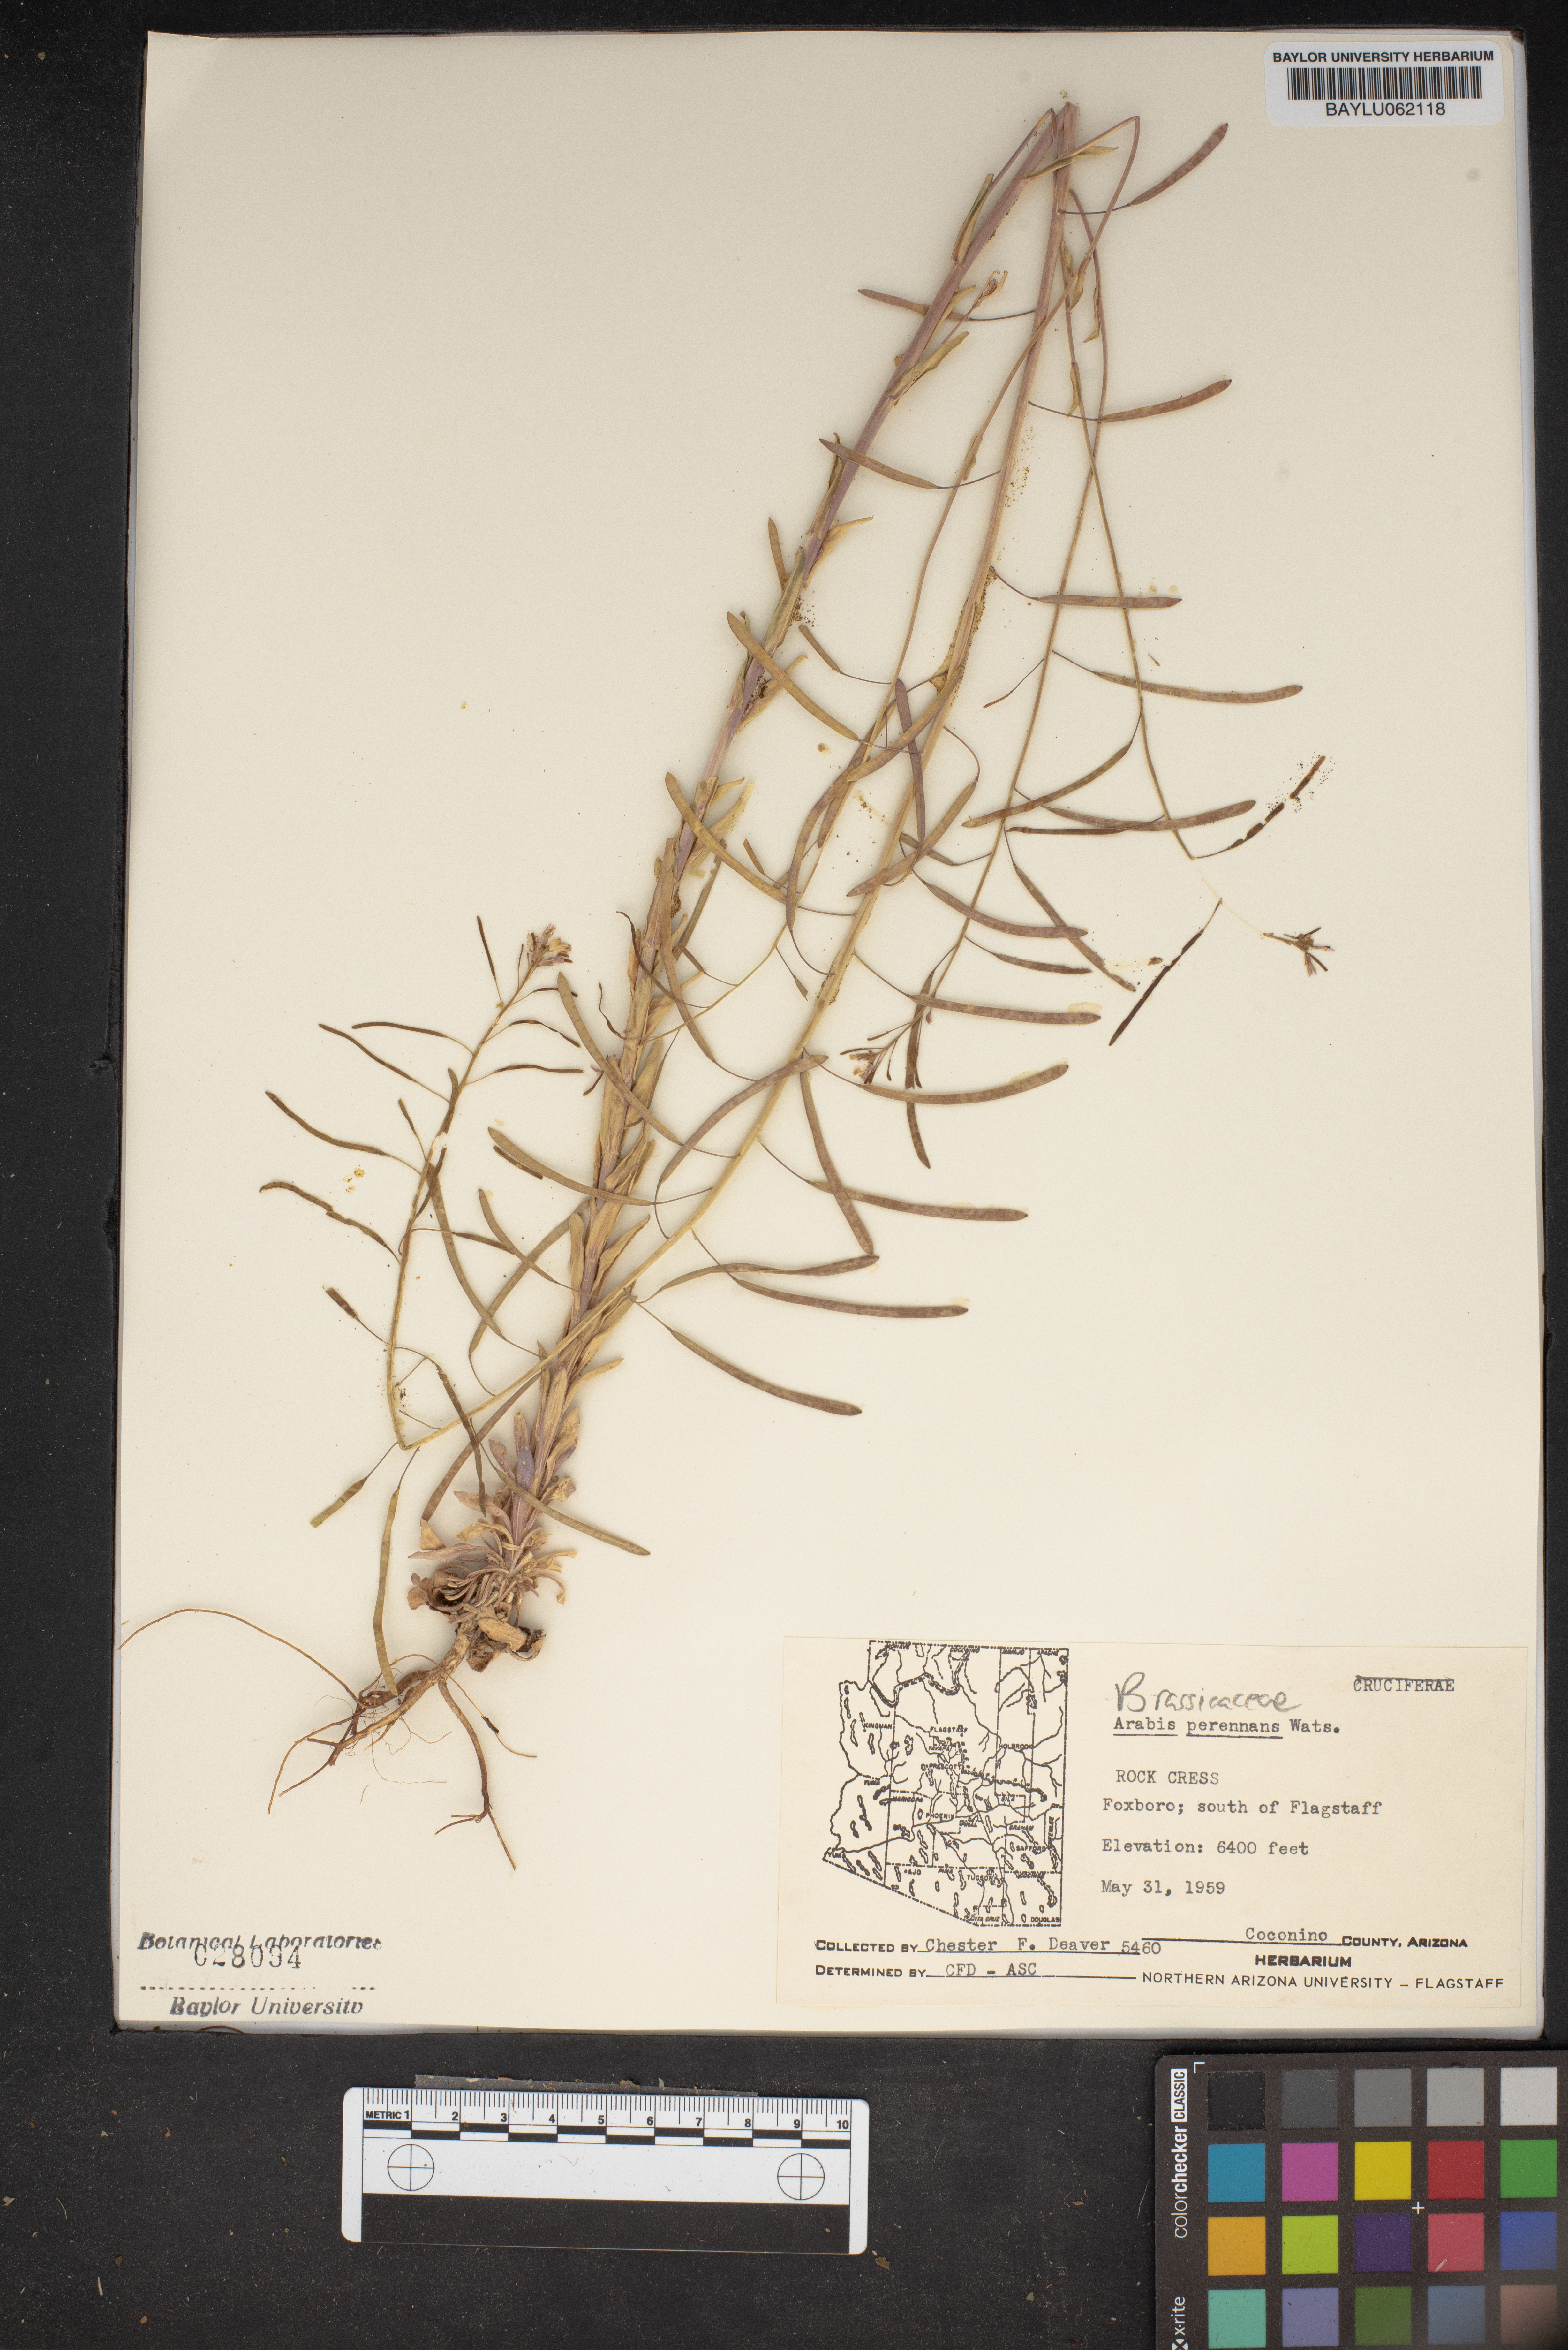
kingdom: Plantae
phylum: Tracheophyta
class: Magnoliopsida
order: Brassicales
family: Brassicaceae
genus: Boechera
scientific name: Boechera perennans
